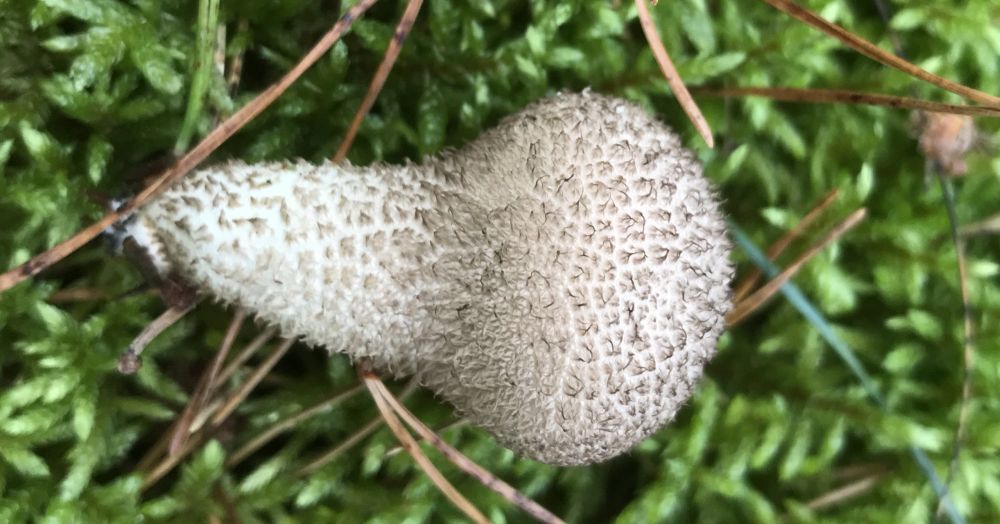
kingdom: Fungi
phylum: Basidiomycota
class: Agaricomycetes
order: Agaricales
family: Lycoperdaceae
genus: Lycoperdon
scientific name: Lycoperdon nigrescens
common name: sortagtig støvbold
